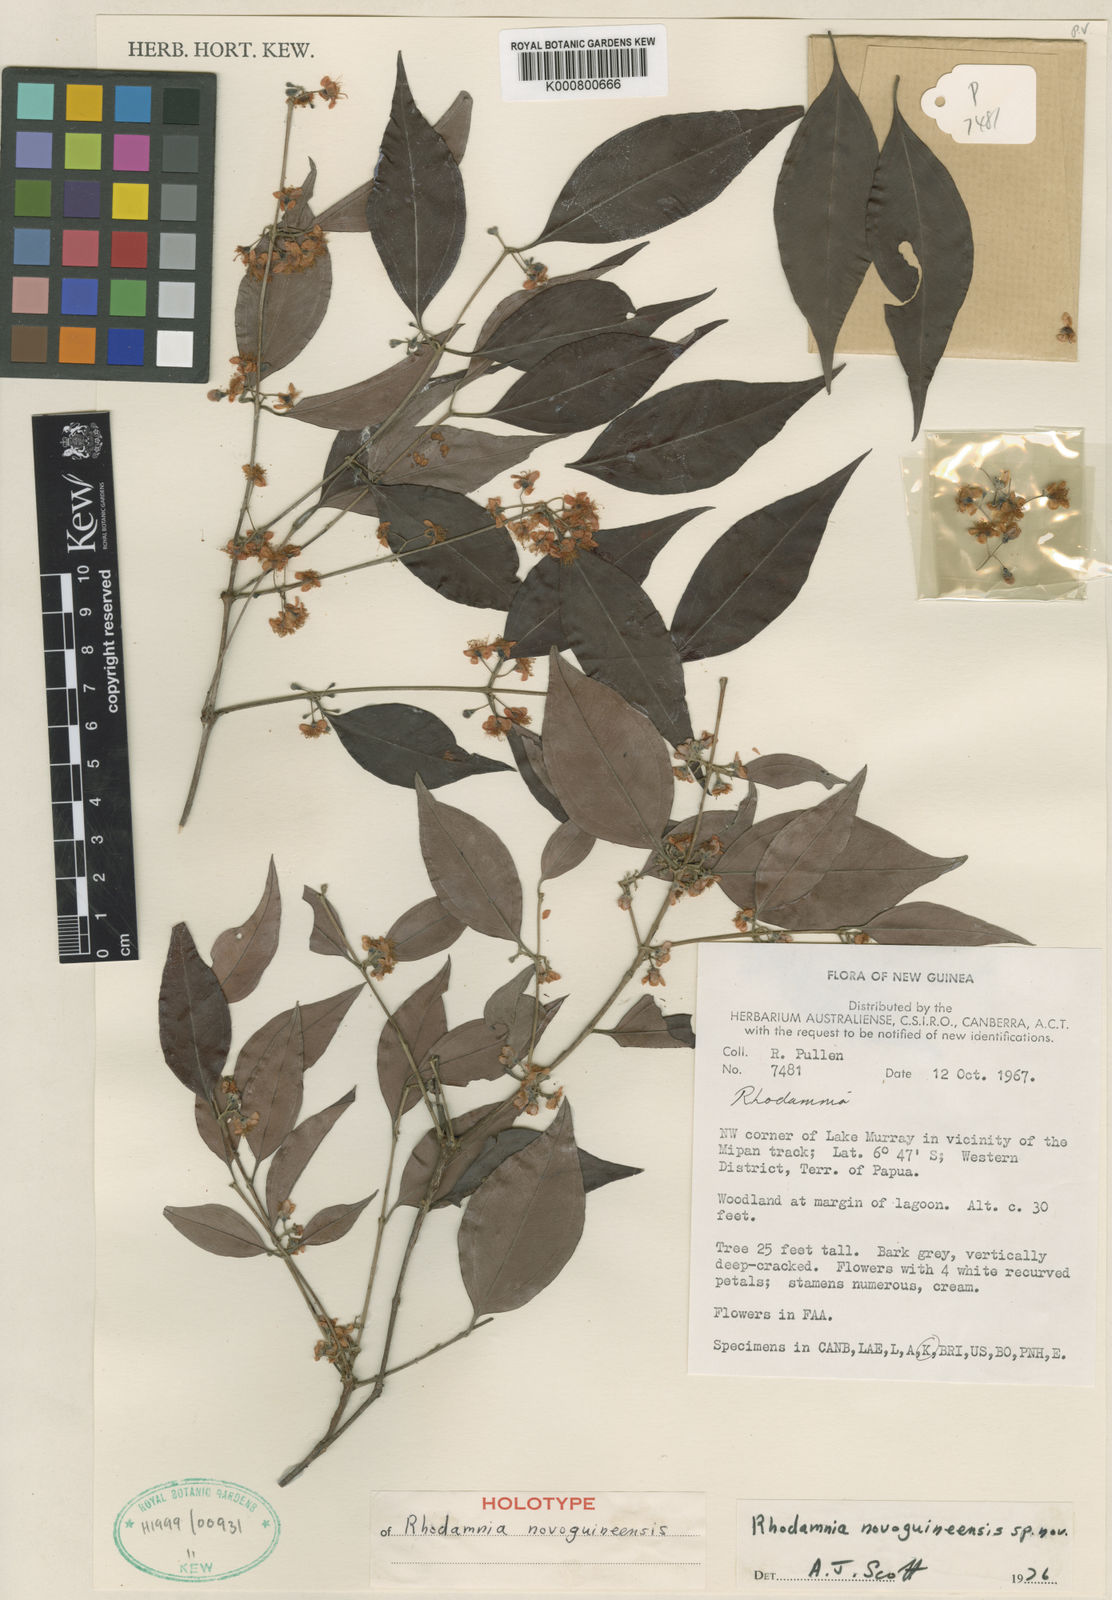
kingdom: Plantae
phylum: Tracheophyta
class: Magnoliopsida
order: Myrtales
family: Myrtaceae
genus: Rhodamnia
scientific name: Rhodamnia novoguineensis
